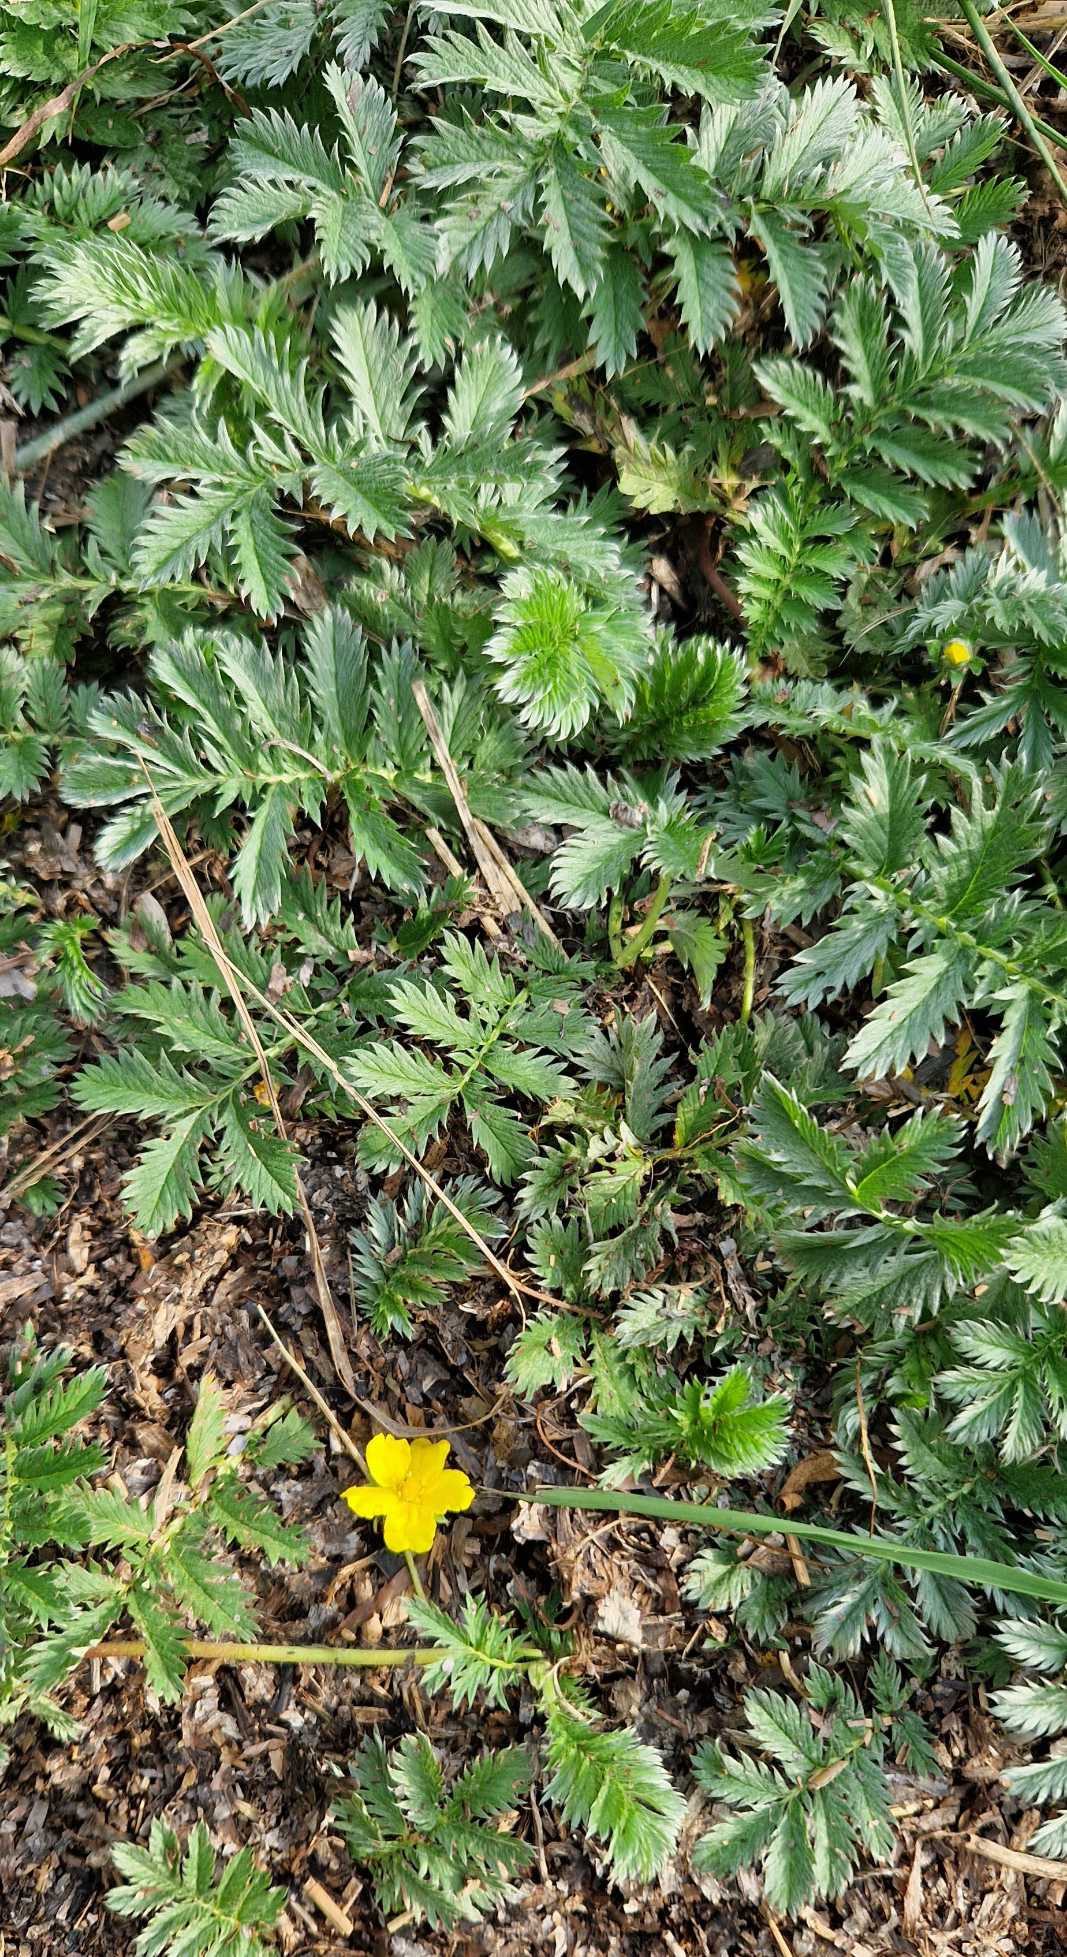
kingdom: Plantae
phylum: Tracheophyta
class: Magnoliopsida
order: Rosales
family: Rosaceae
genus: Argentina
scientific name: Argentina anserina
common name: Gåsepotentil
